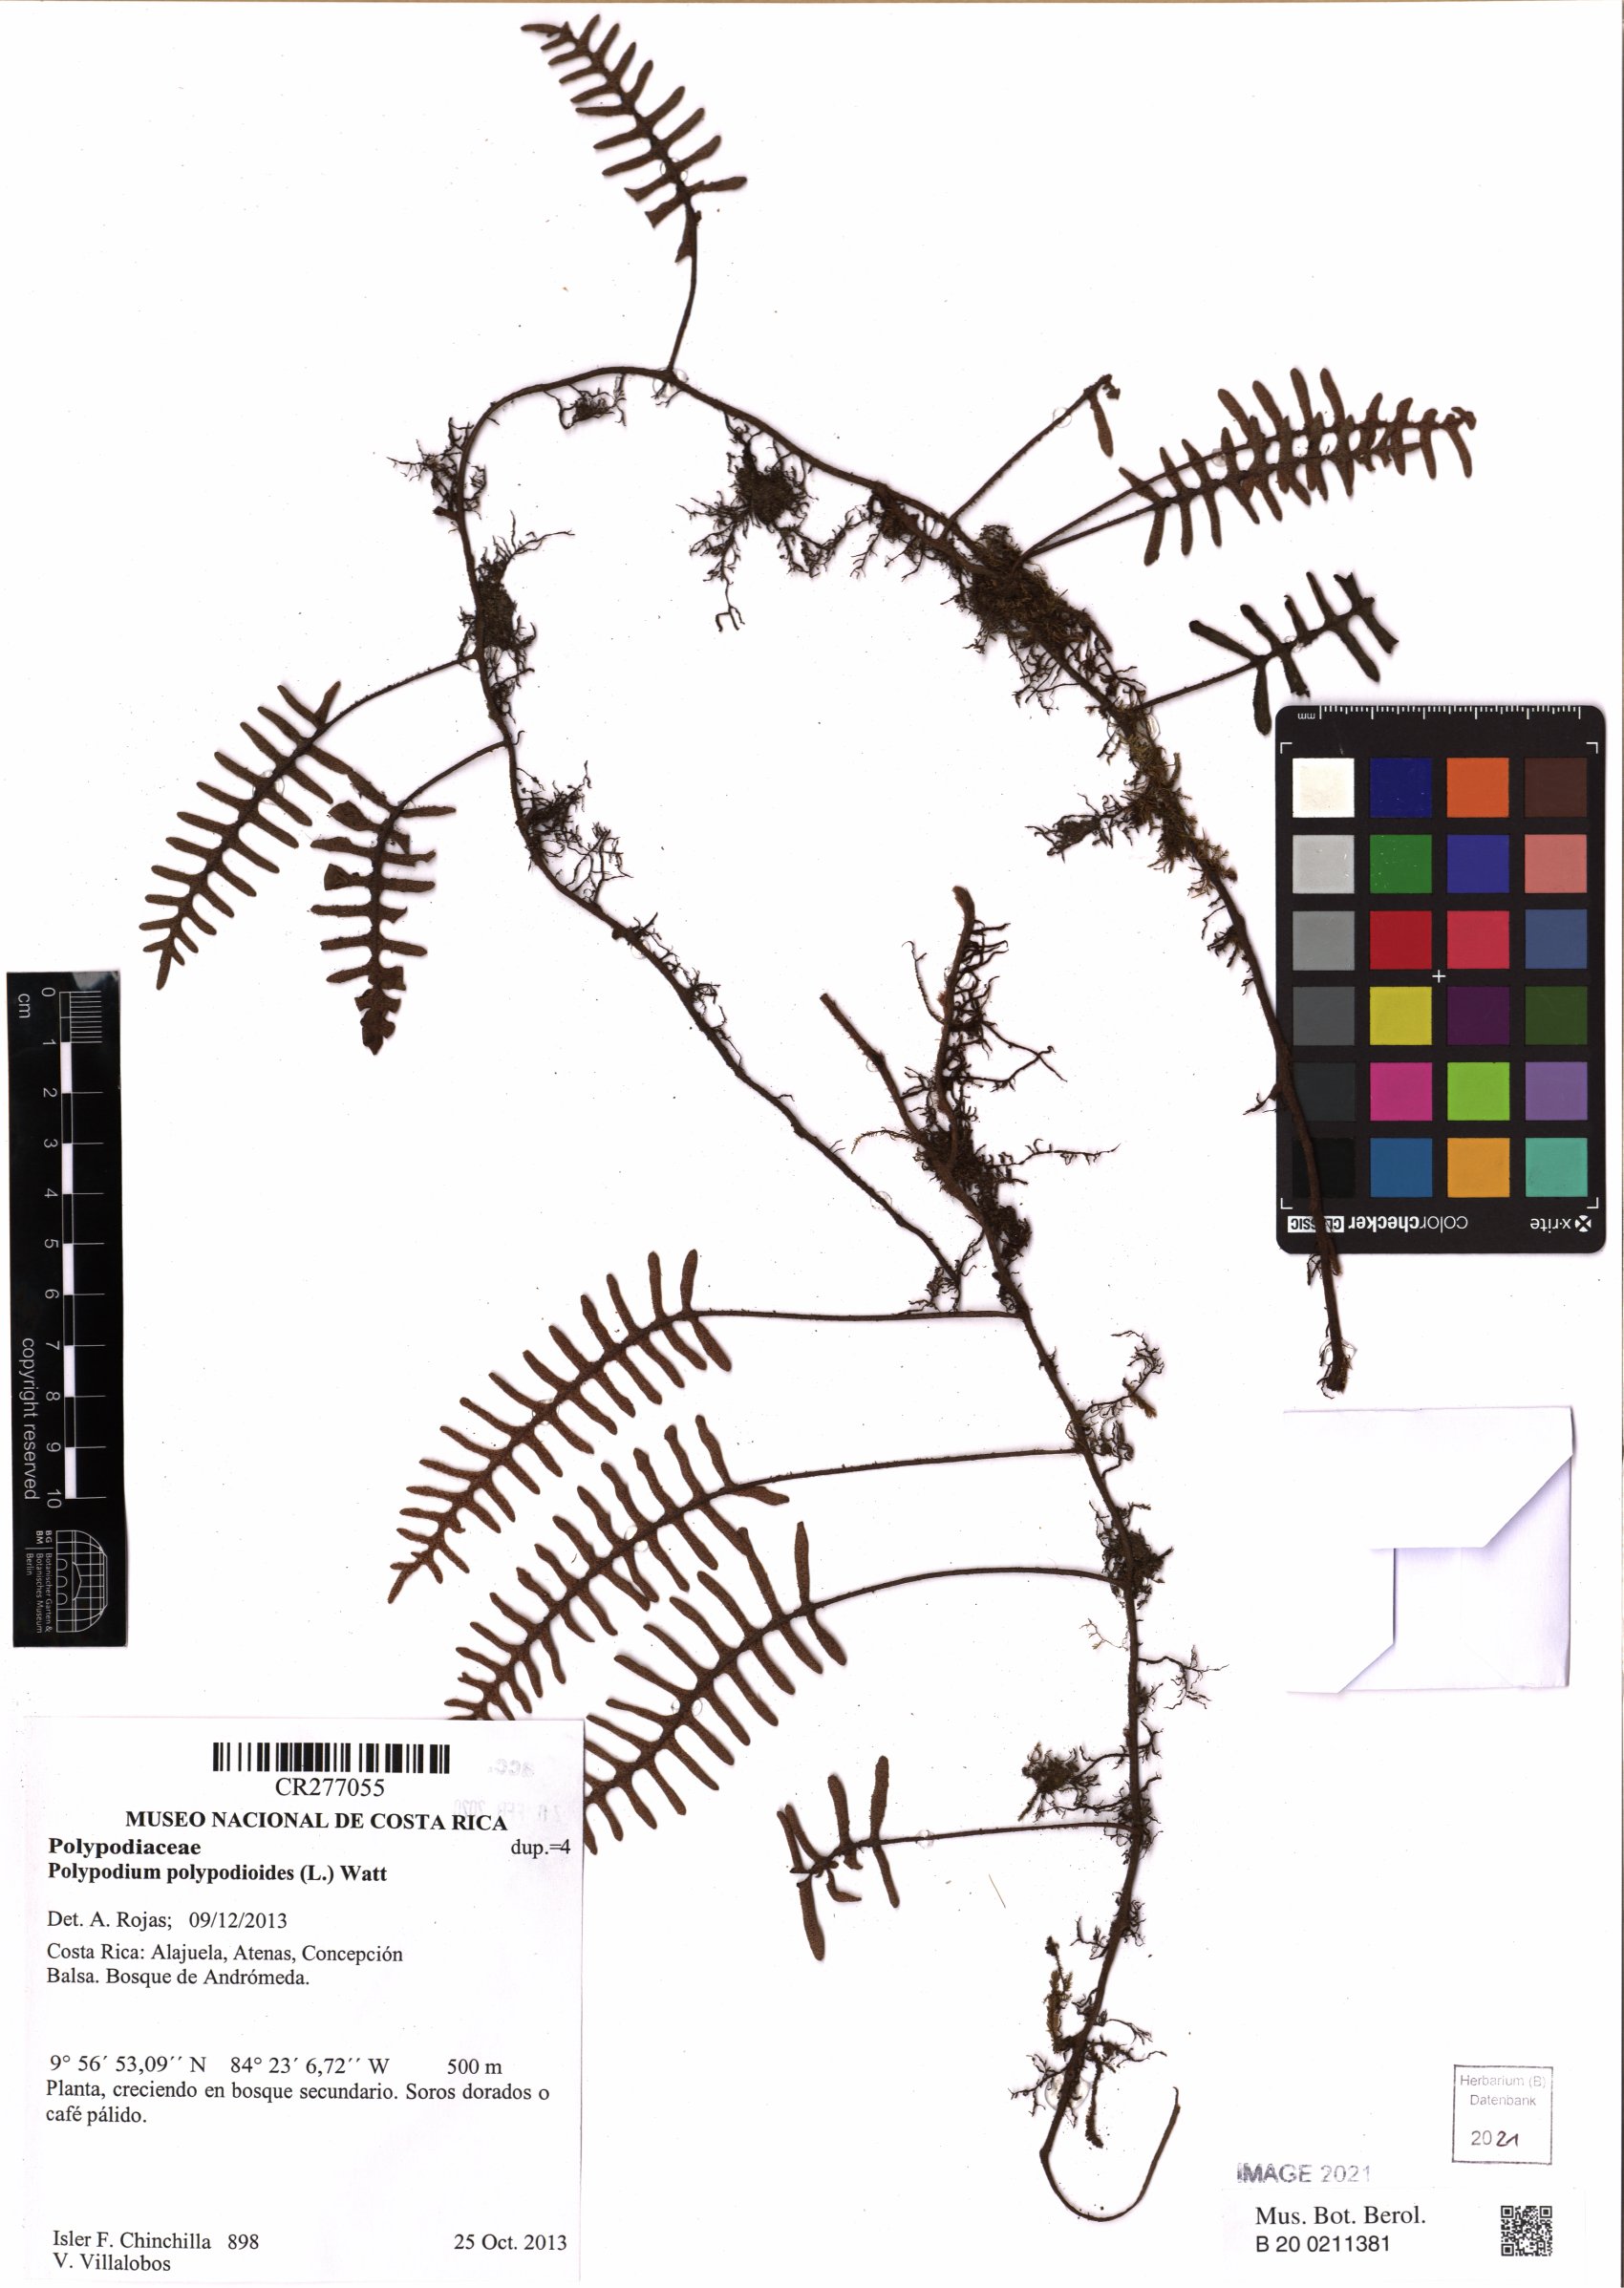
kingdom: Plantae
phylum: Tracheophyta
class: Polypodiopsida
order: Polypodiales
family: Polypodiaceae
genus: Pleopeltis
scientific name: Pleopeltis polypodioides
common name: Resurrection fern
